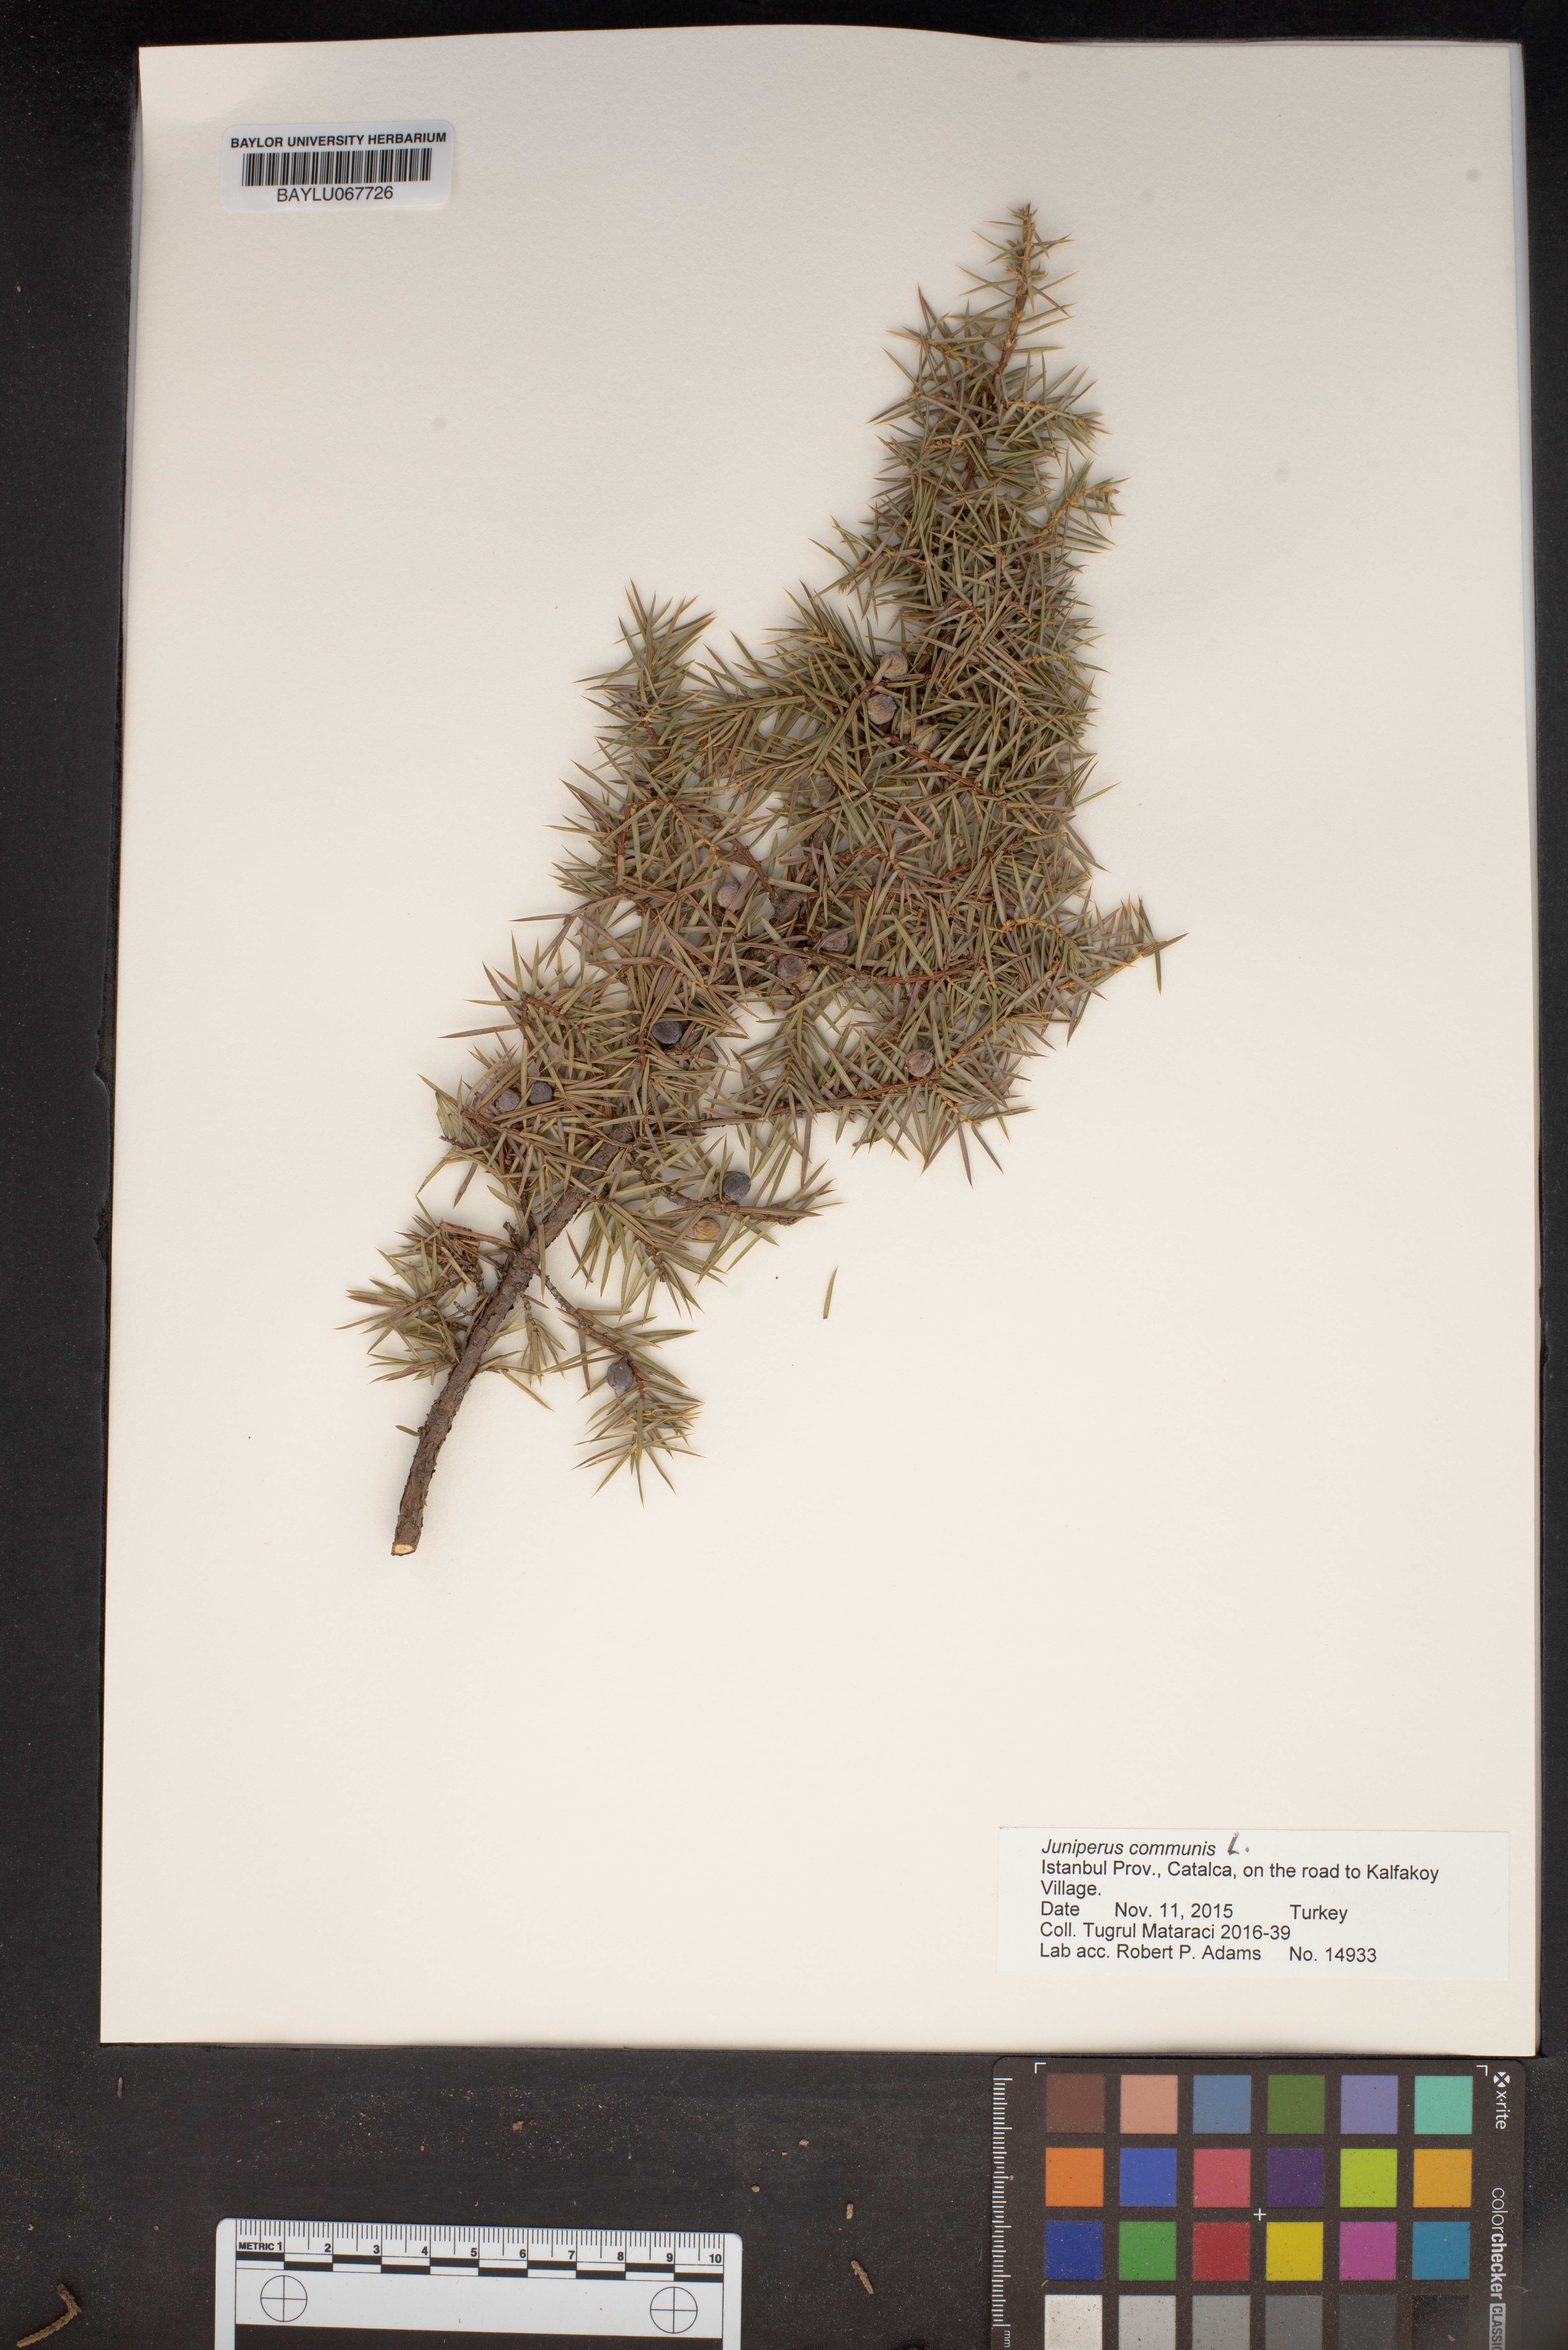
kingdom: Plantae
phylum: Tracheophyta
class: Pinopsida
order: Pinales
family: Cupressaceae
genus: Juniperus
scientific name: Juniperus communis
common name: Common juniper
